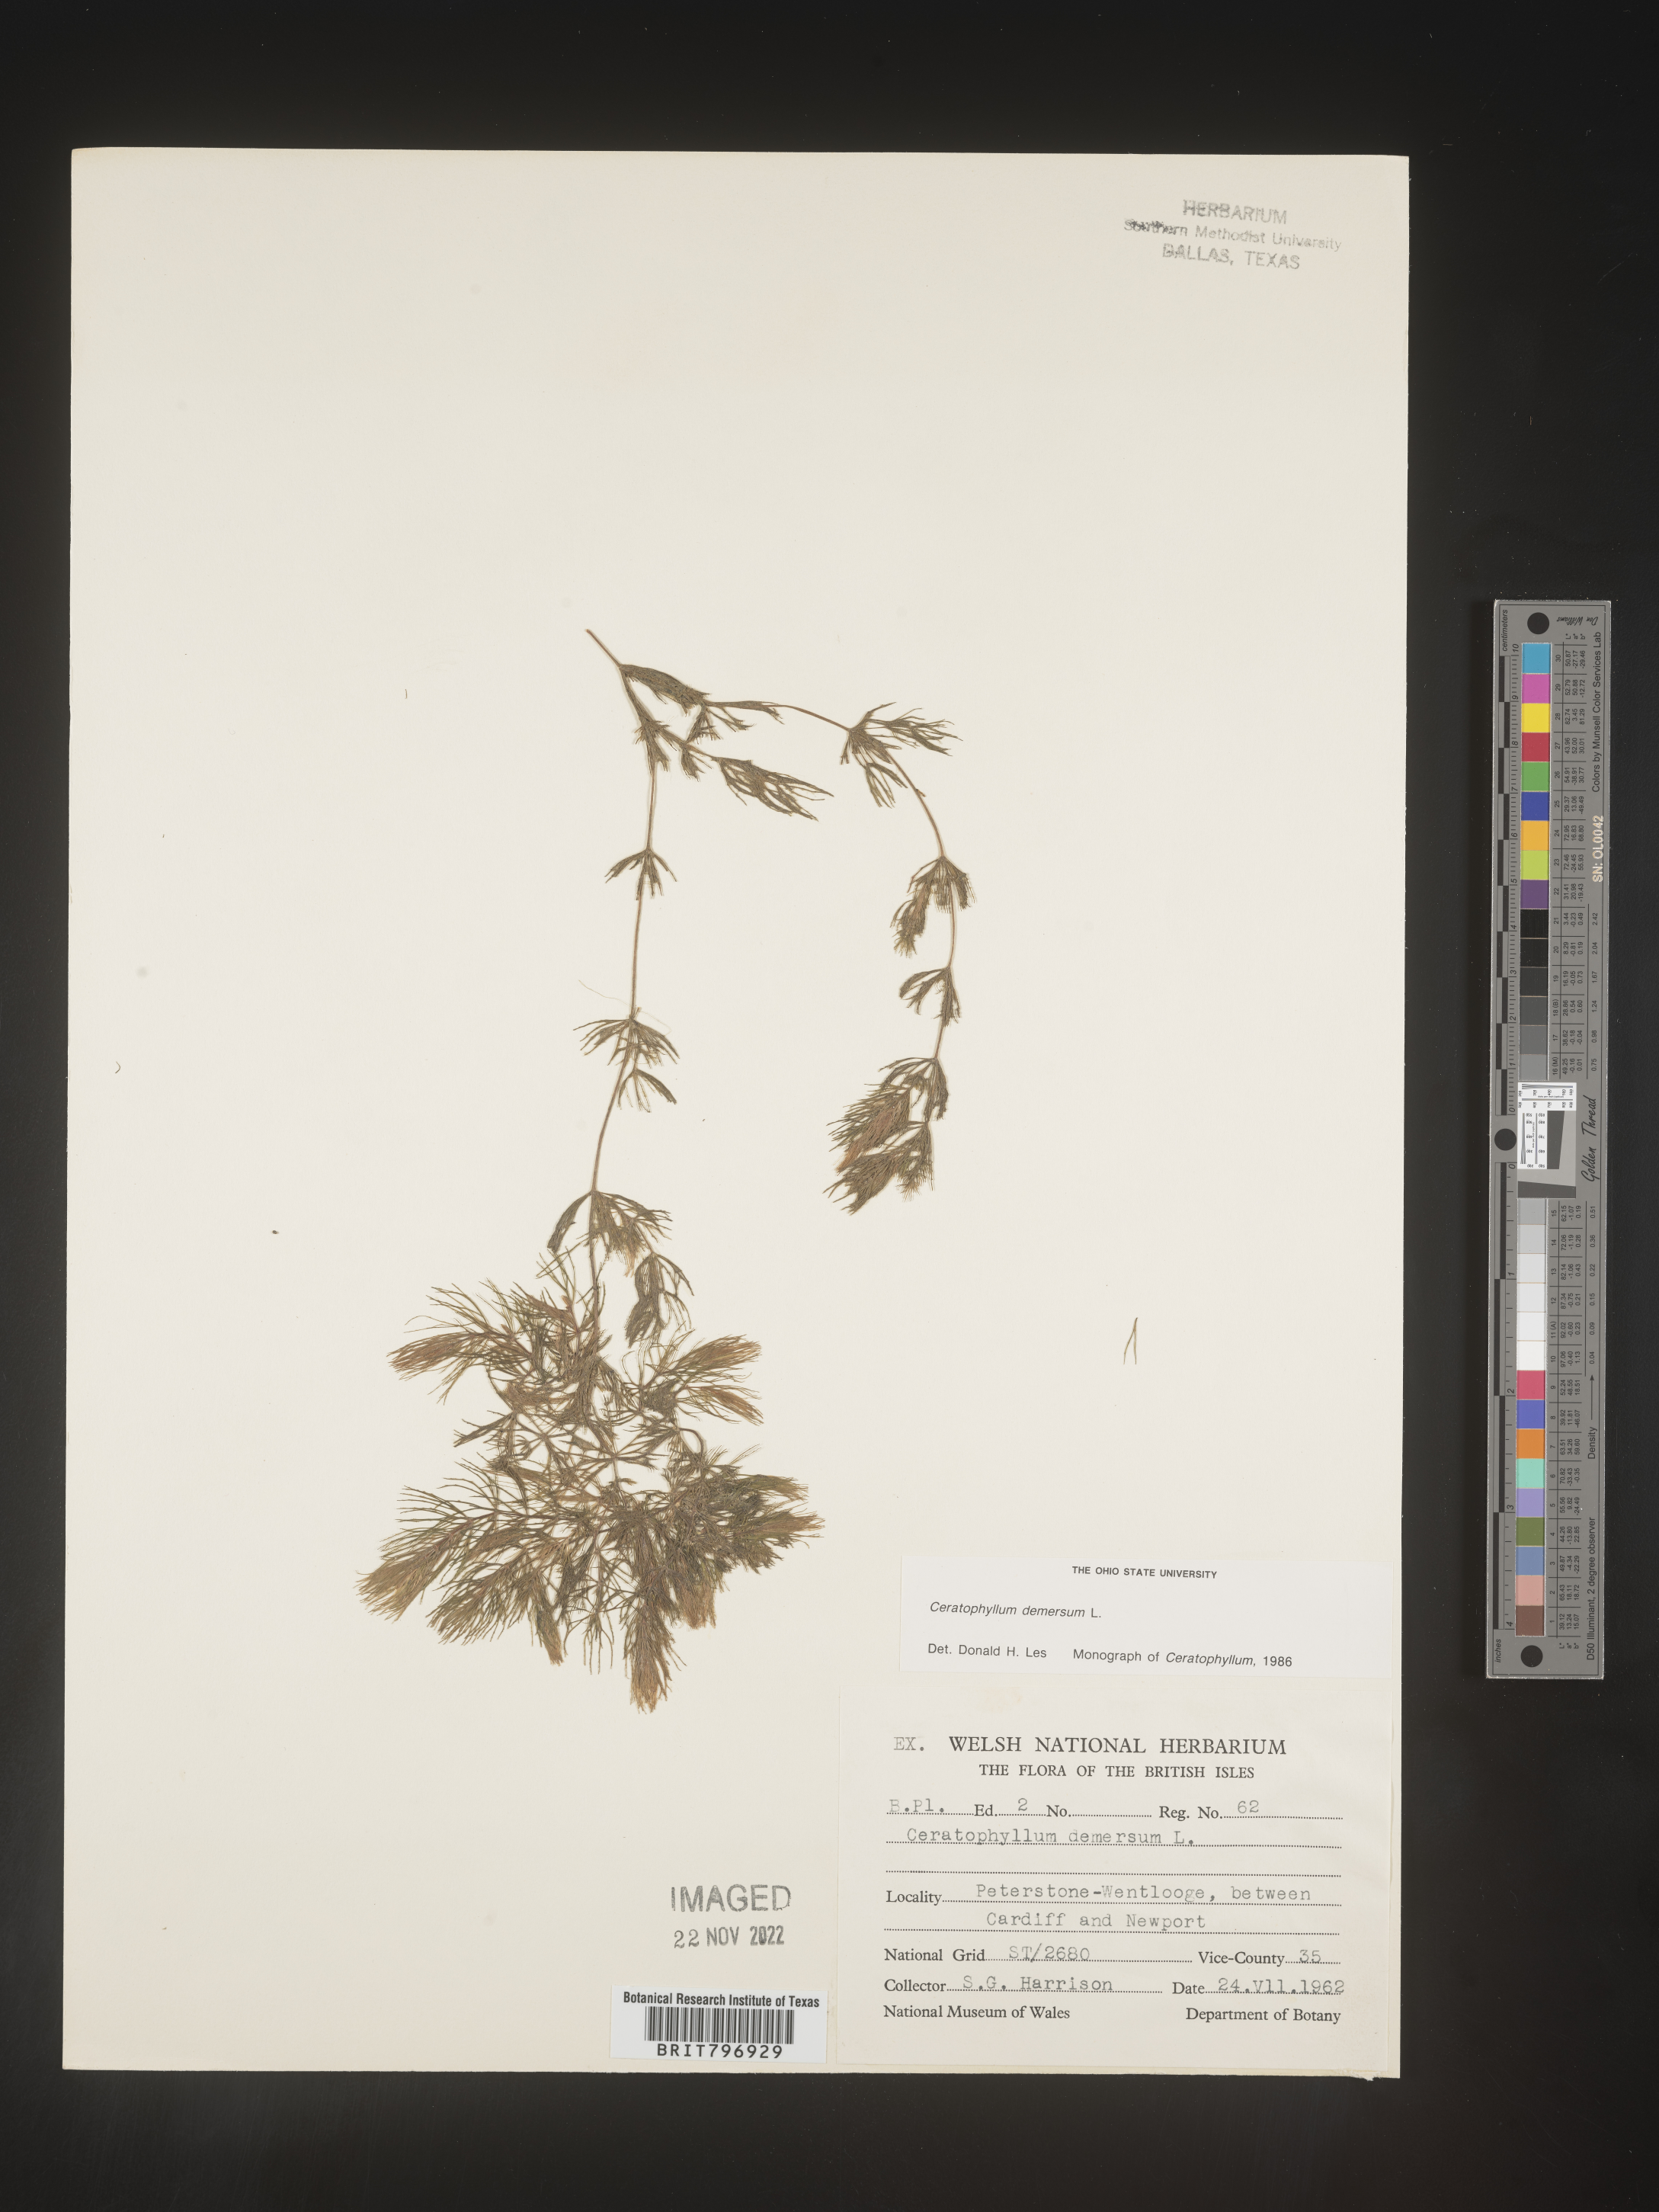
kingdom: Plantae
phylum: Tracheophyta
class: Magnoliopsida
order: Ceratophyllales
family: Ceratophyllaceae
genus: Ceratophyllum
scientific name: Ceratophyllum
